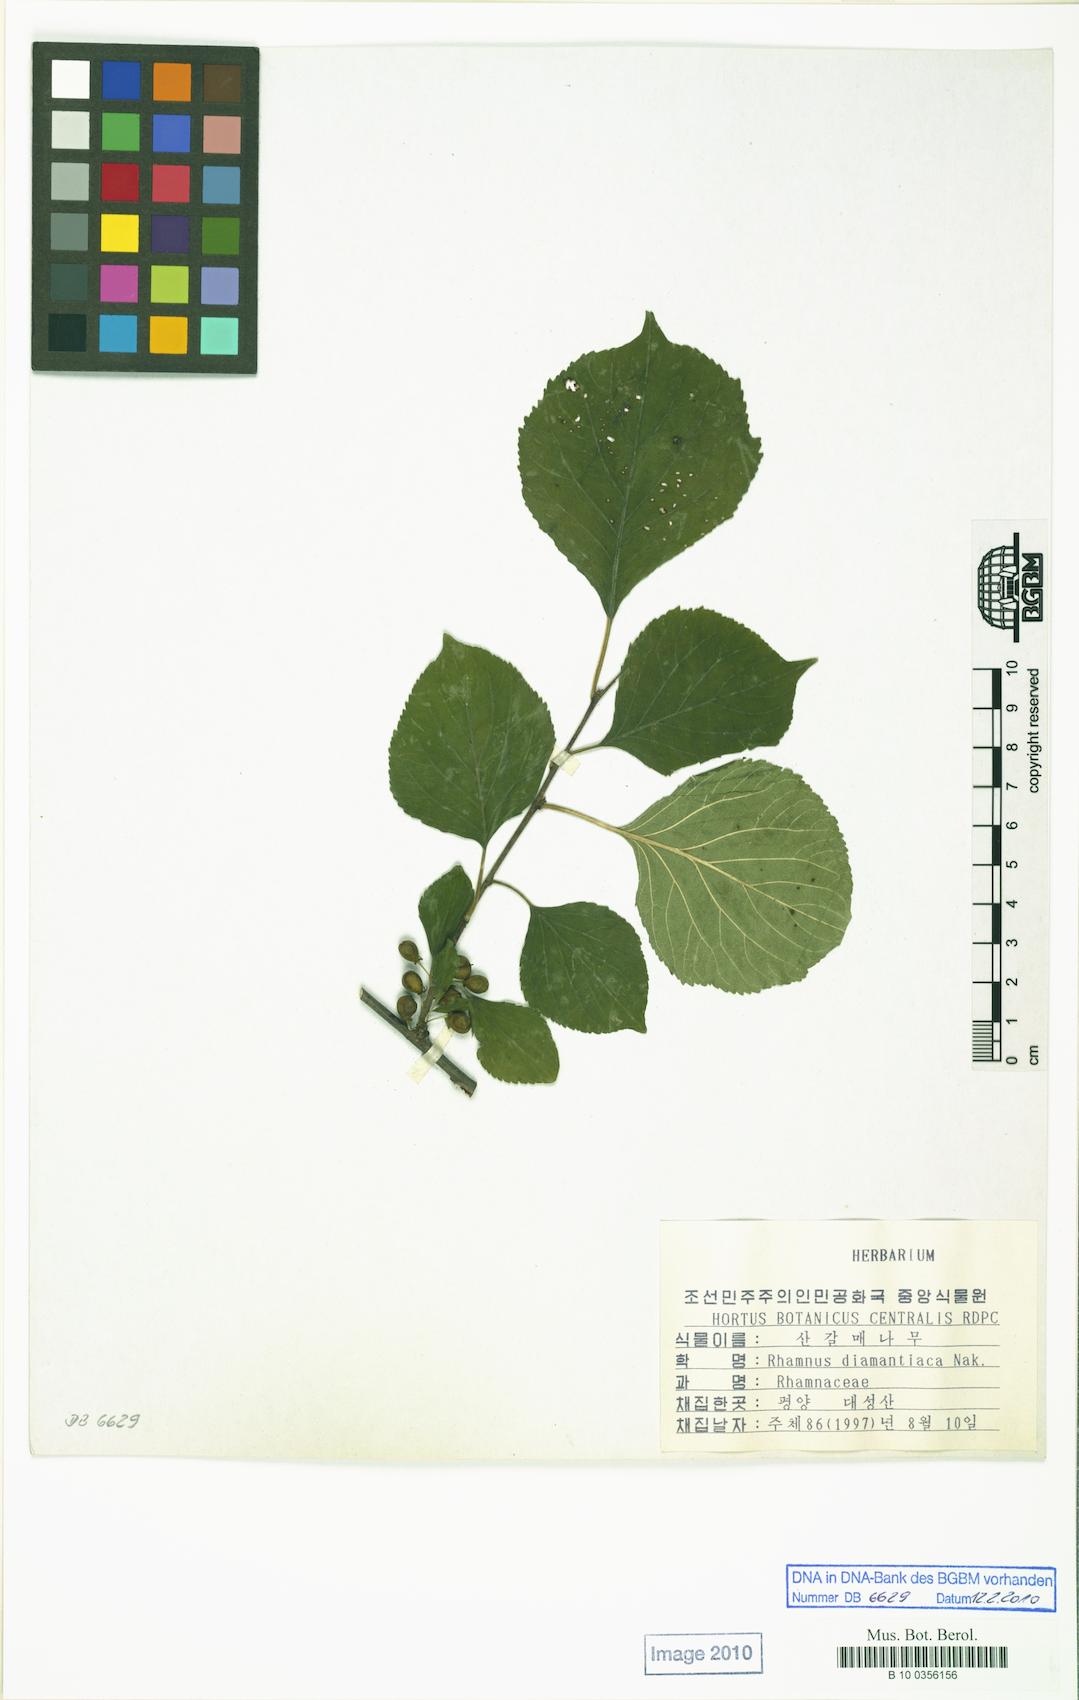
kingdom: Plantae
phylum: Tracheophyta
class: Magnoliopsida
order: Rosales
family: Rhamnaceae
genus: Rhamnus
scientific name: Rhamnus rugulosa
